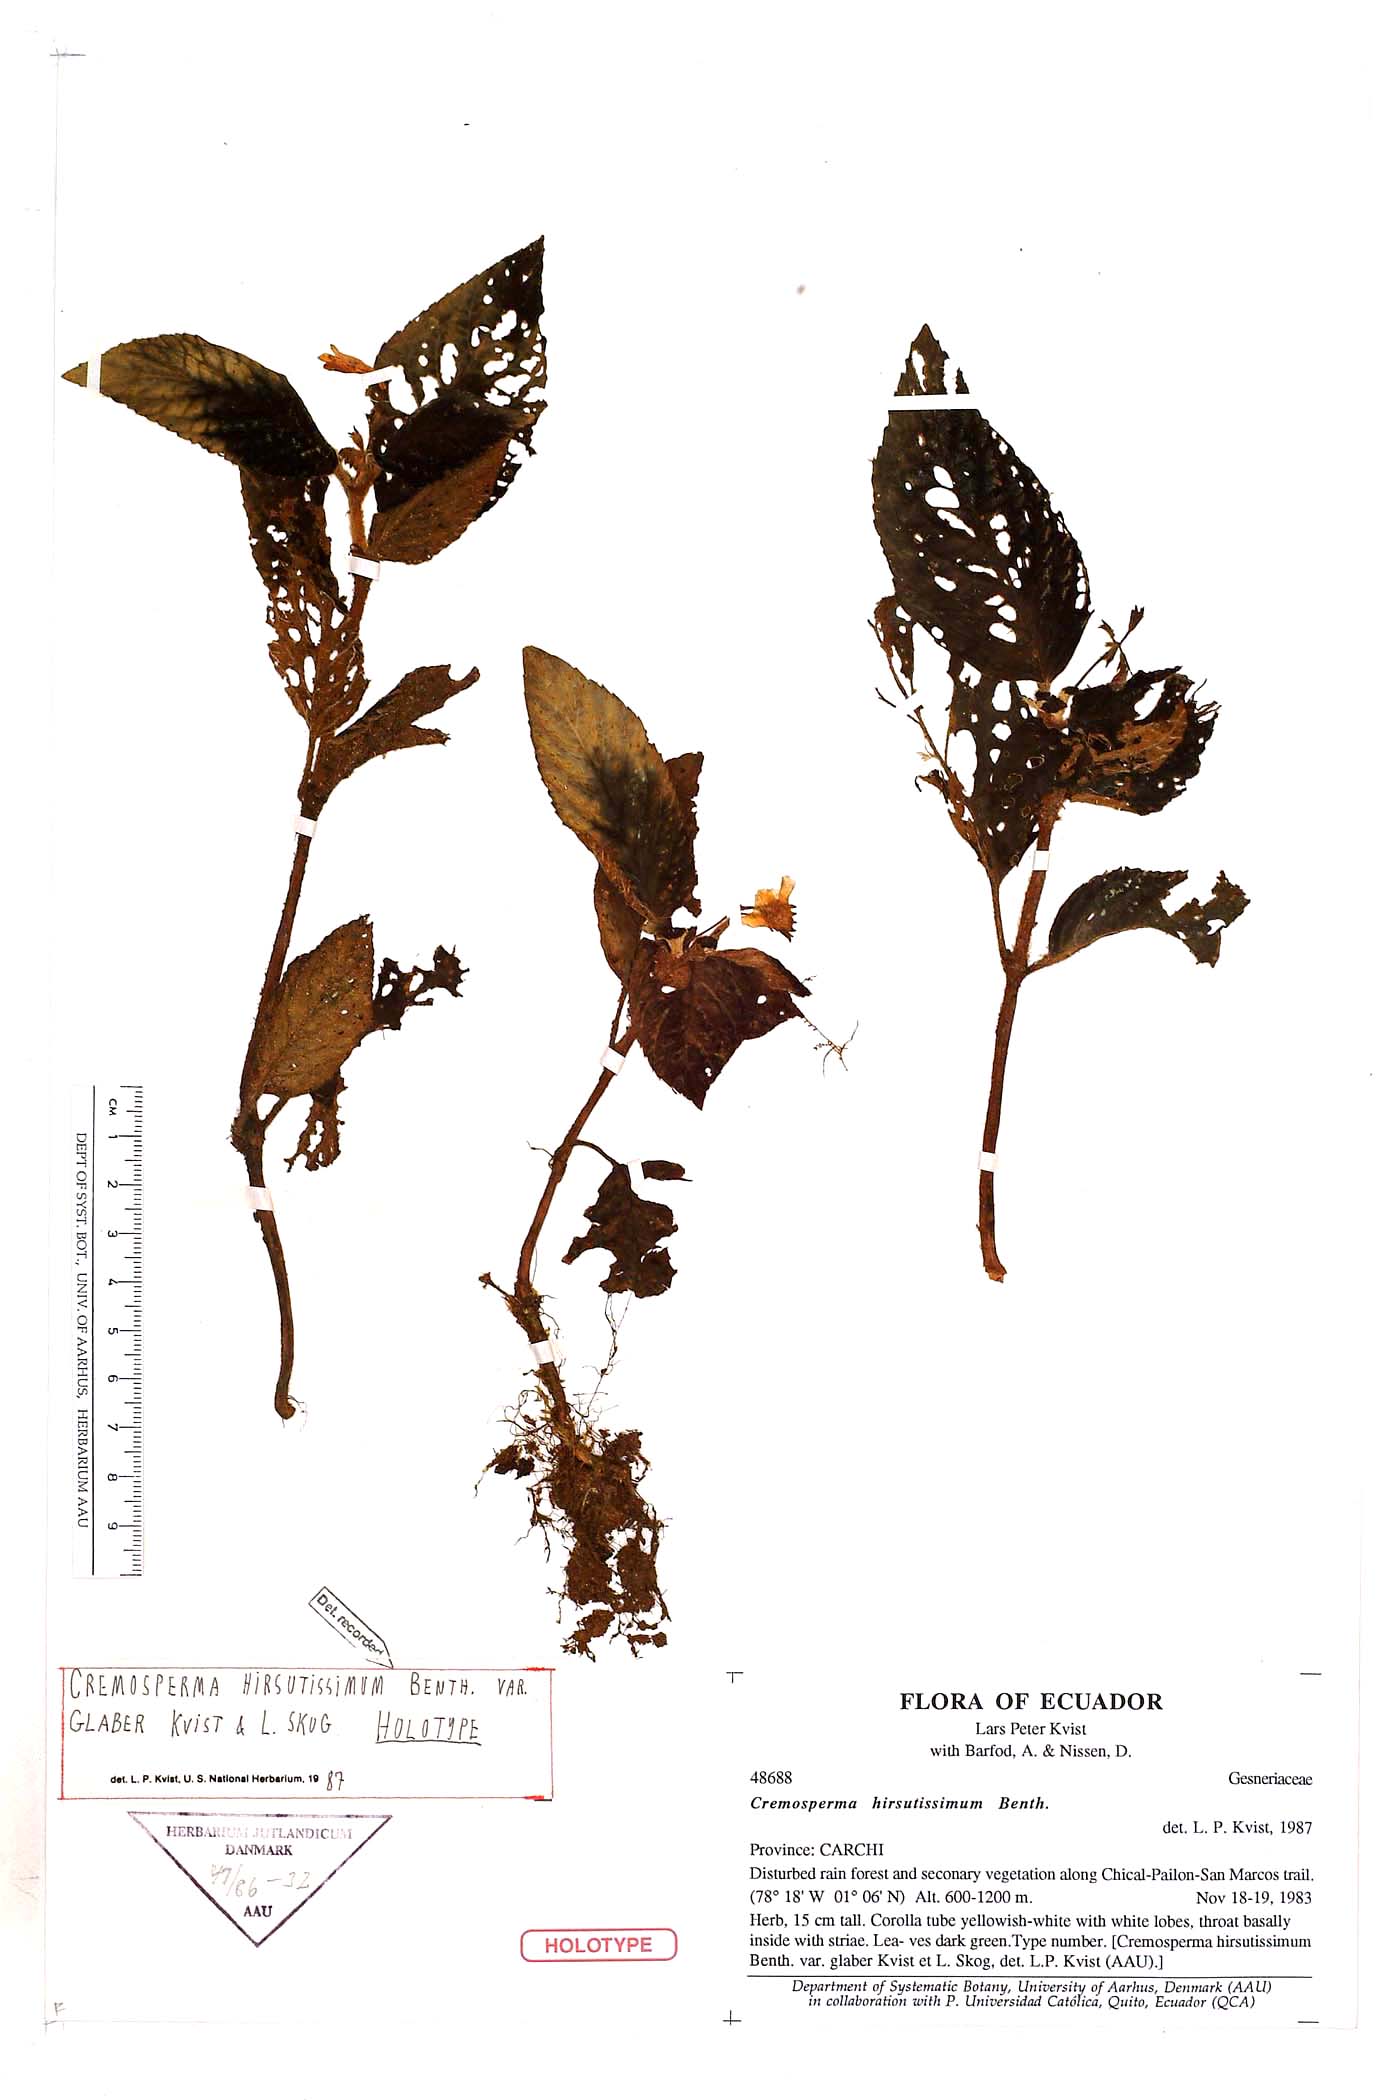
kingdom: Plantae
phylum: Tracheophyta
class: Magnoliopsida
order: Lamiales
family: Gesneriaceae
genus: Cremosperma
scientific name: Cremosperma hirsutissimum
